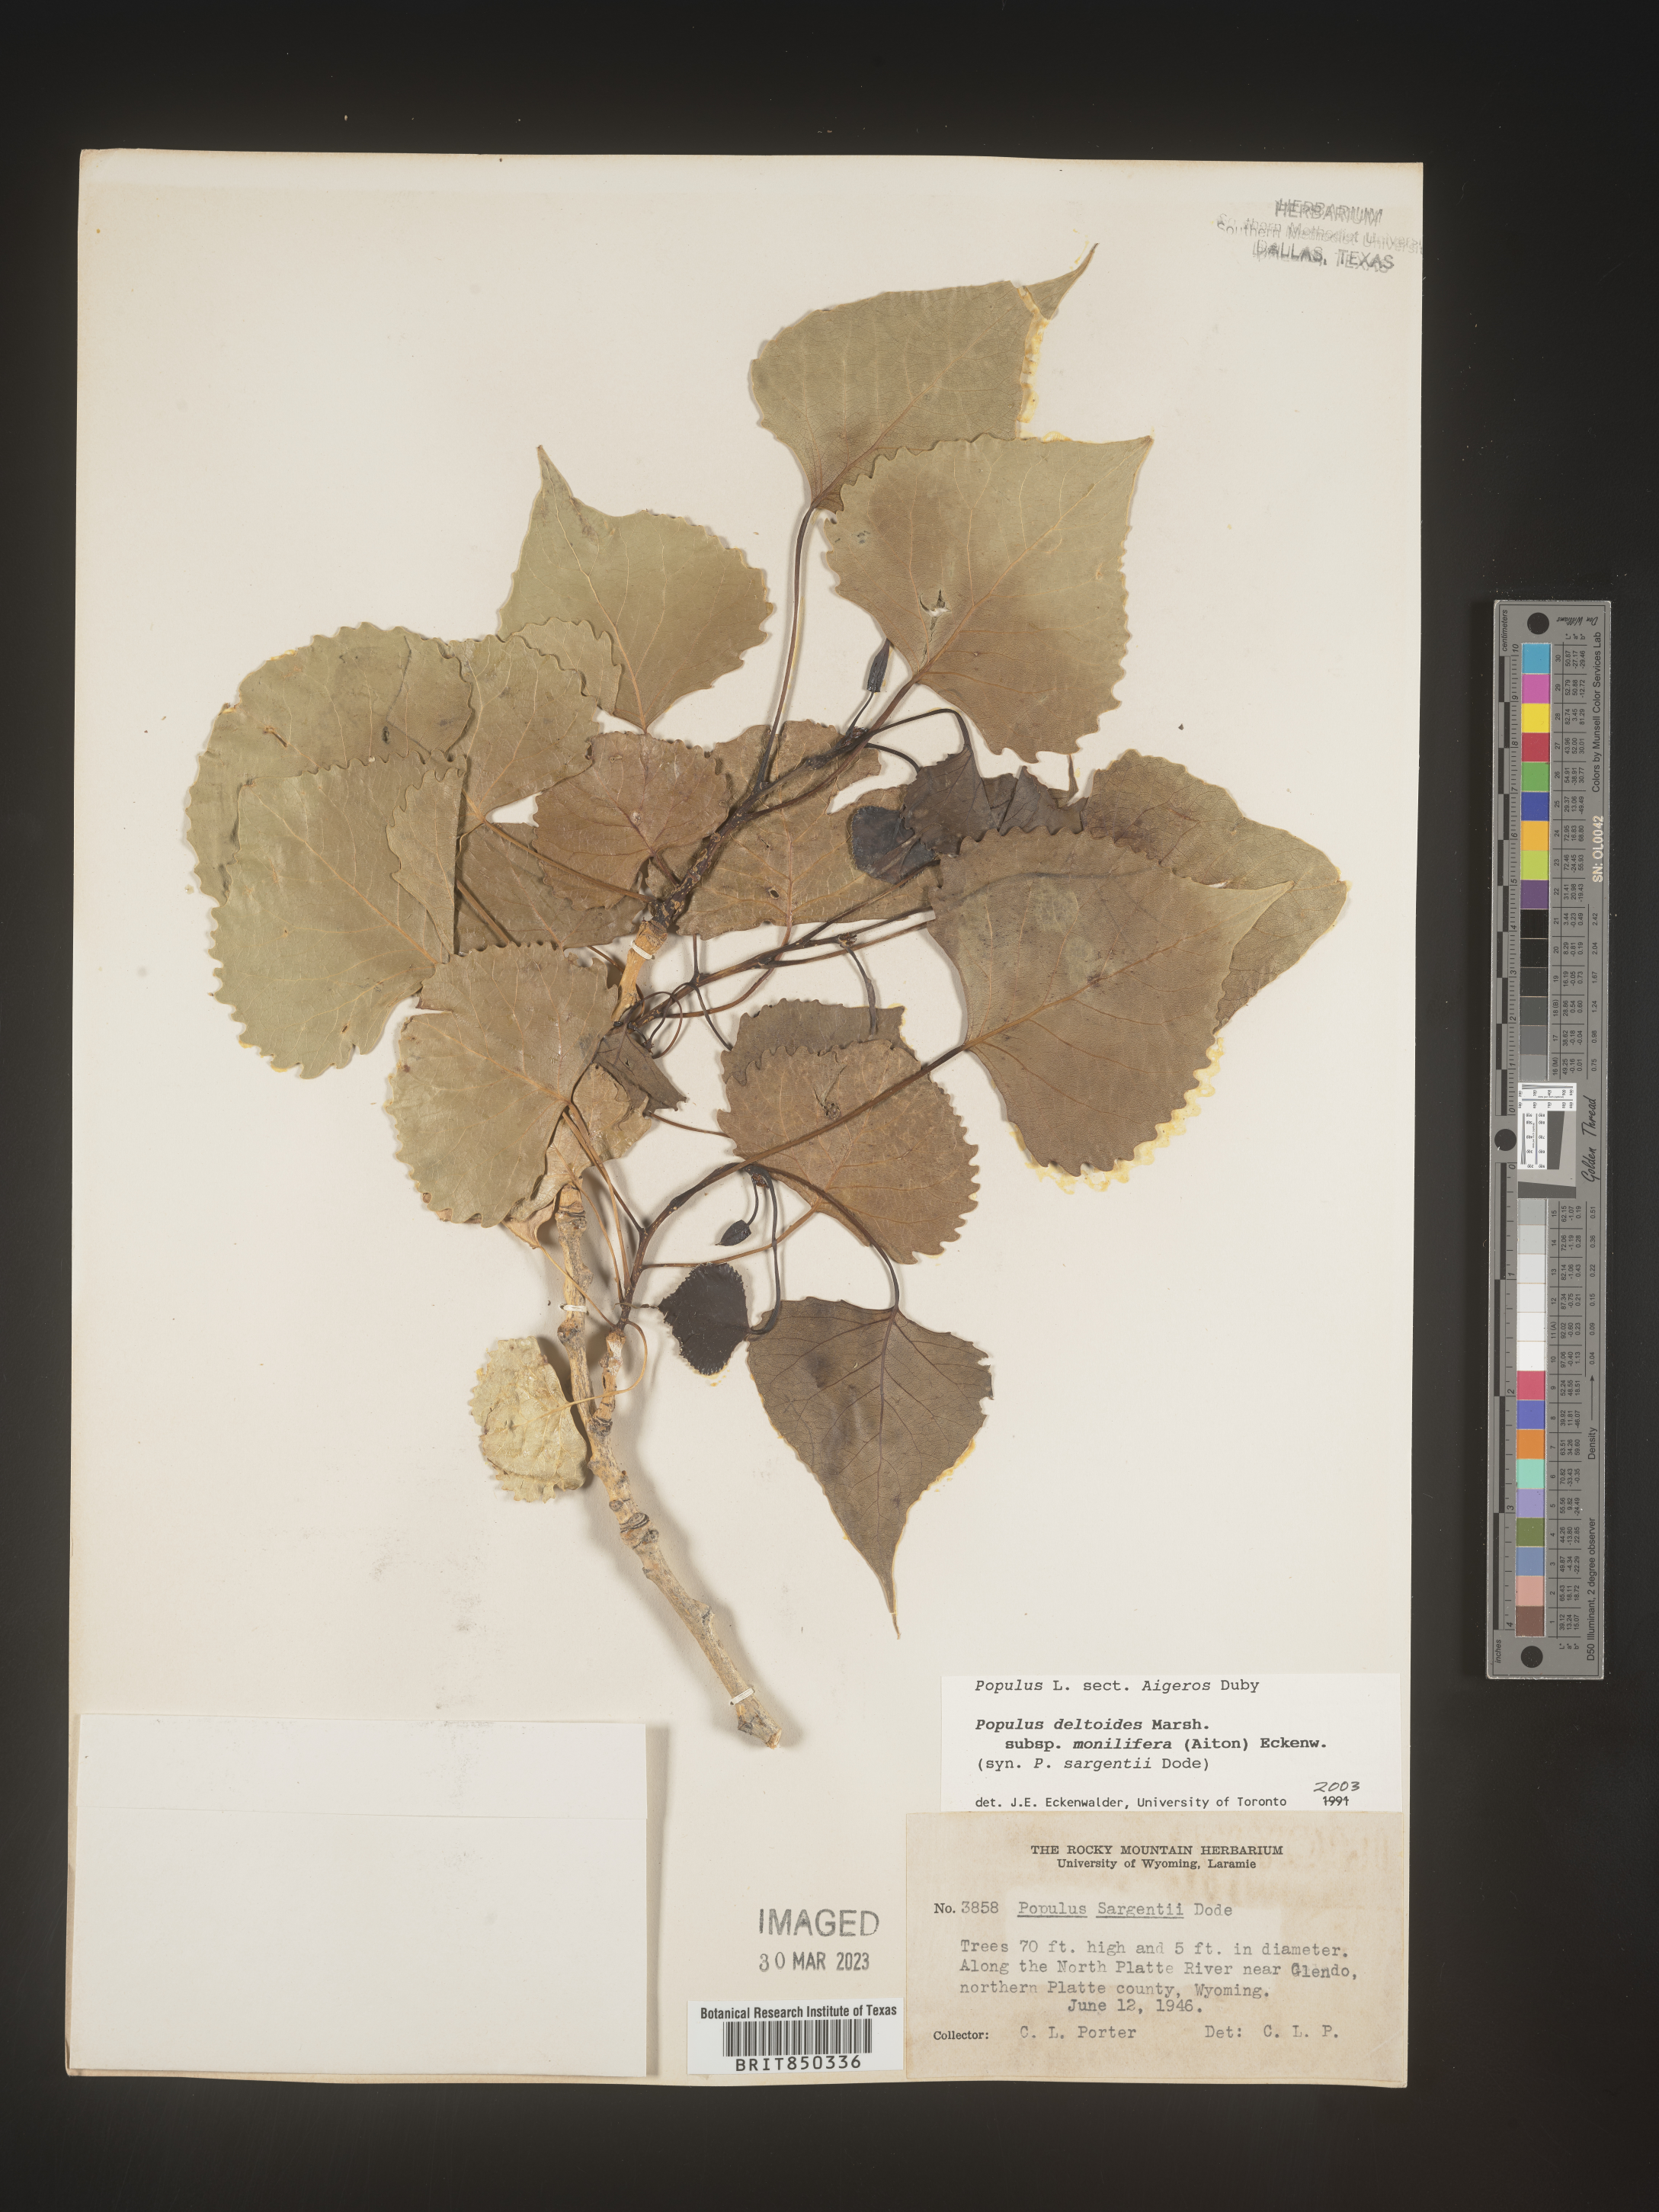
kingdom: Plantae
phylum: Tracheophyta
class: Magnoliopsida
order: Malpighiales
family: Salicaceae
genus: Populus
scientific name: Populus deltoides
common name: Eastern cottonwood
